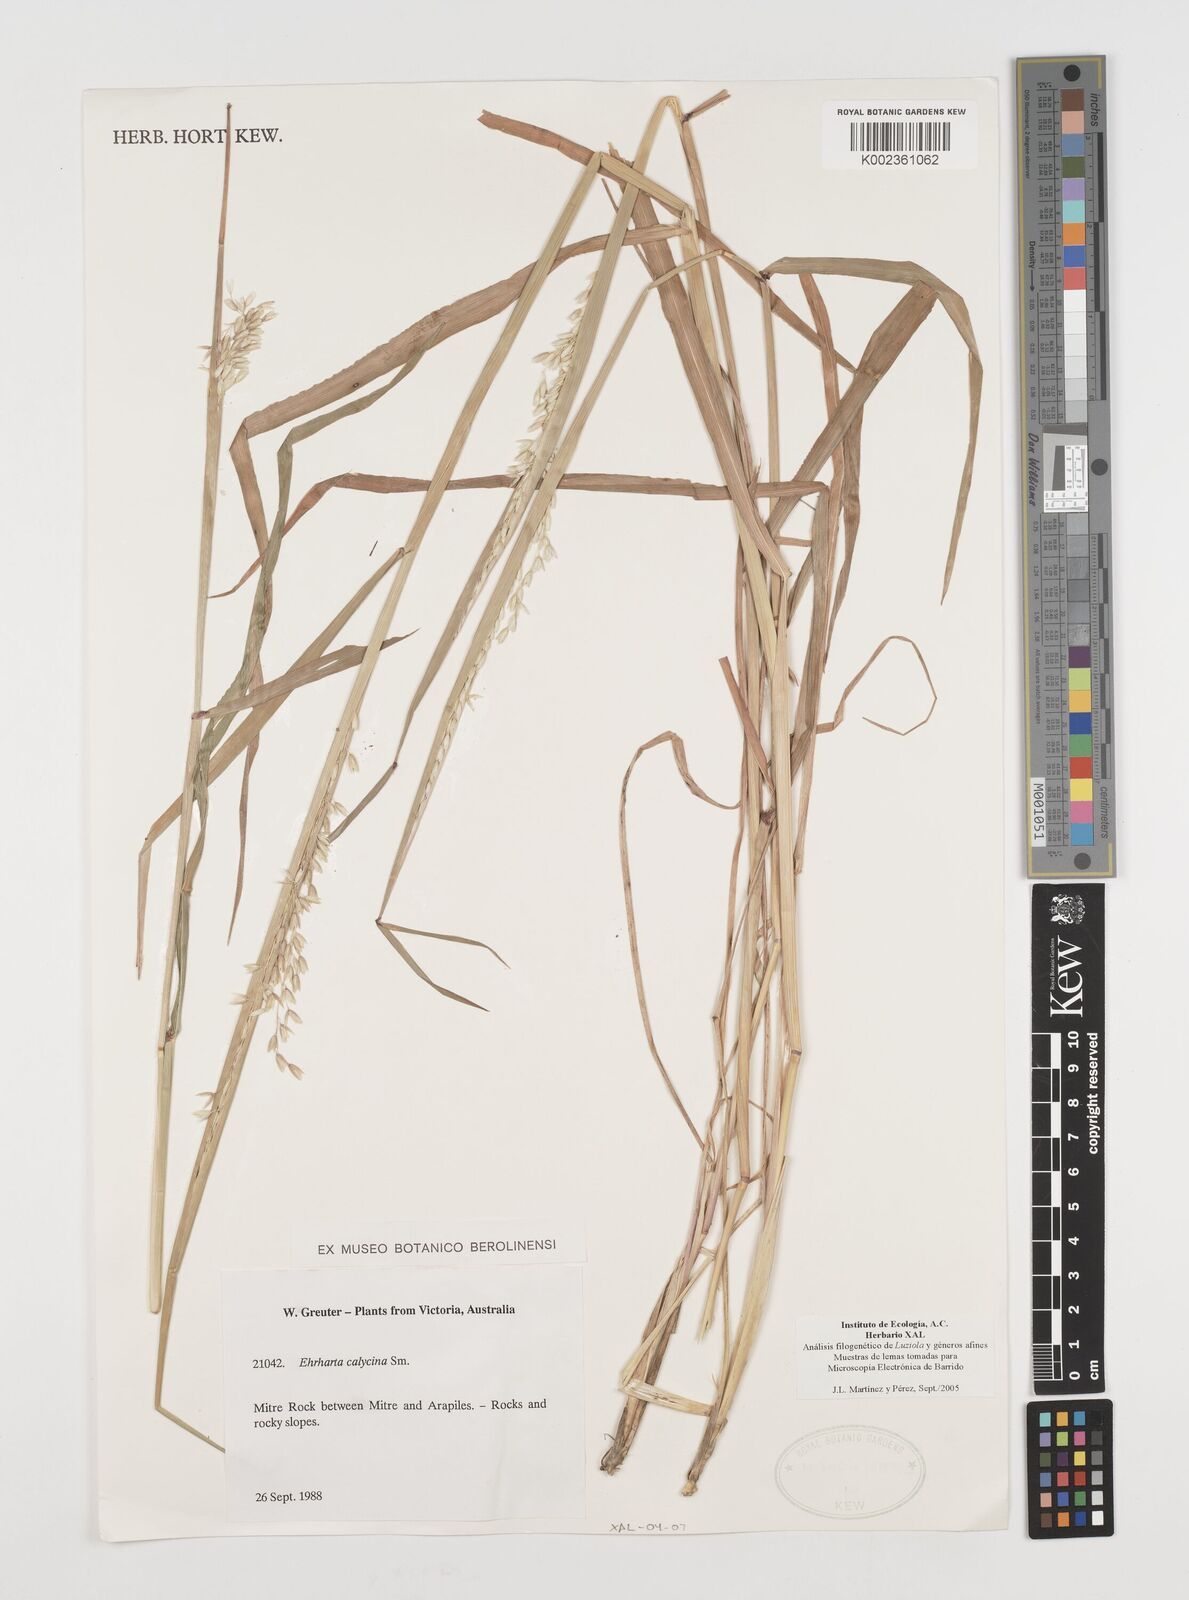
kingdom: Plantae
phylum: Tracheophyta
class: Liliopsida
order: Poales
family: Poaceae
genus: Ehrharta
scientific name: Ehrharta calycina
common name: Perennial veldtgrass
